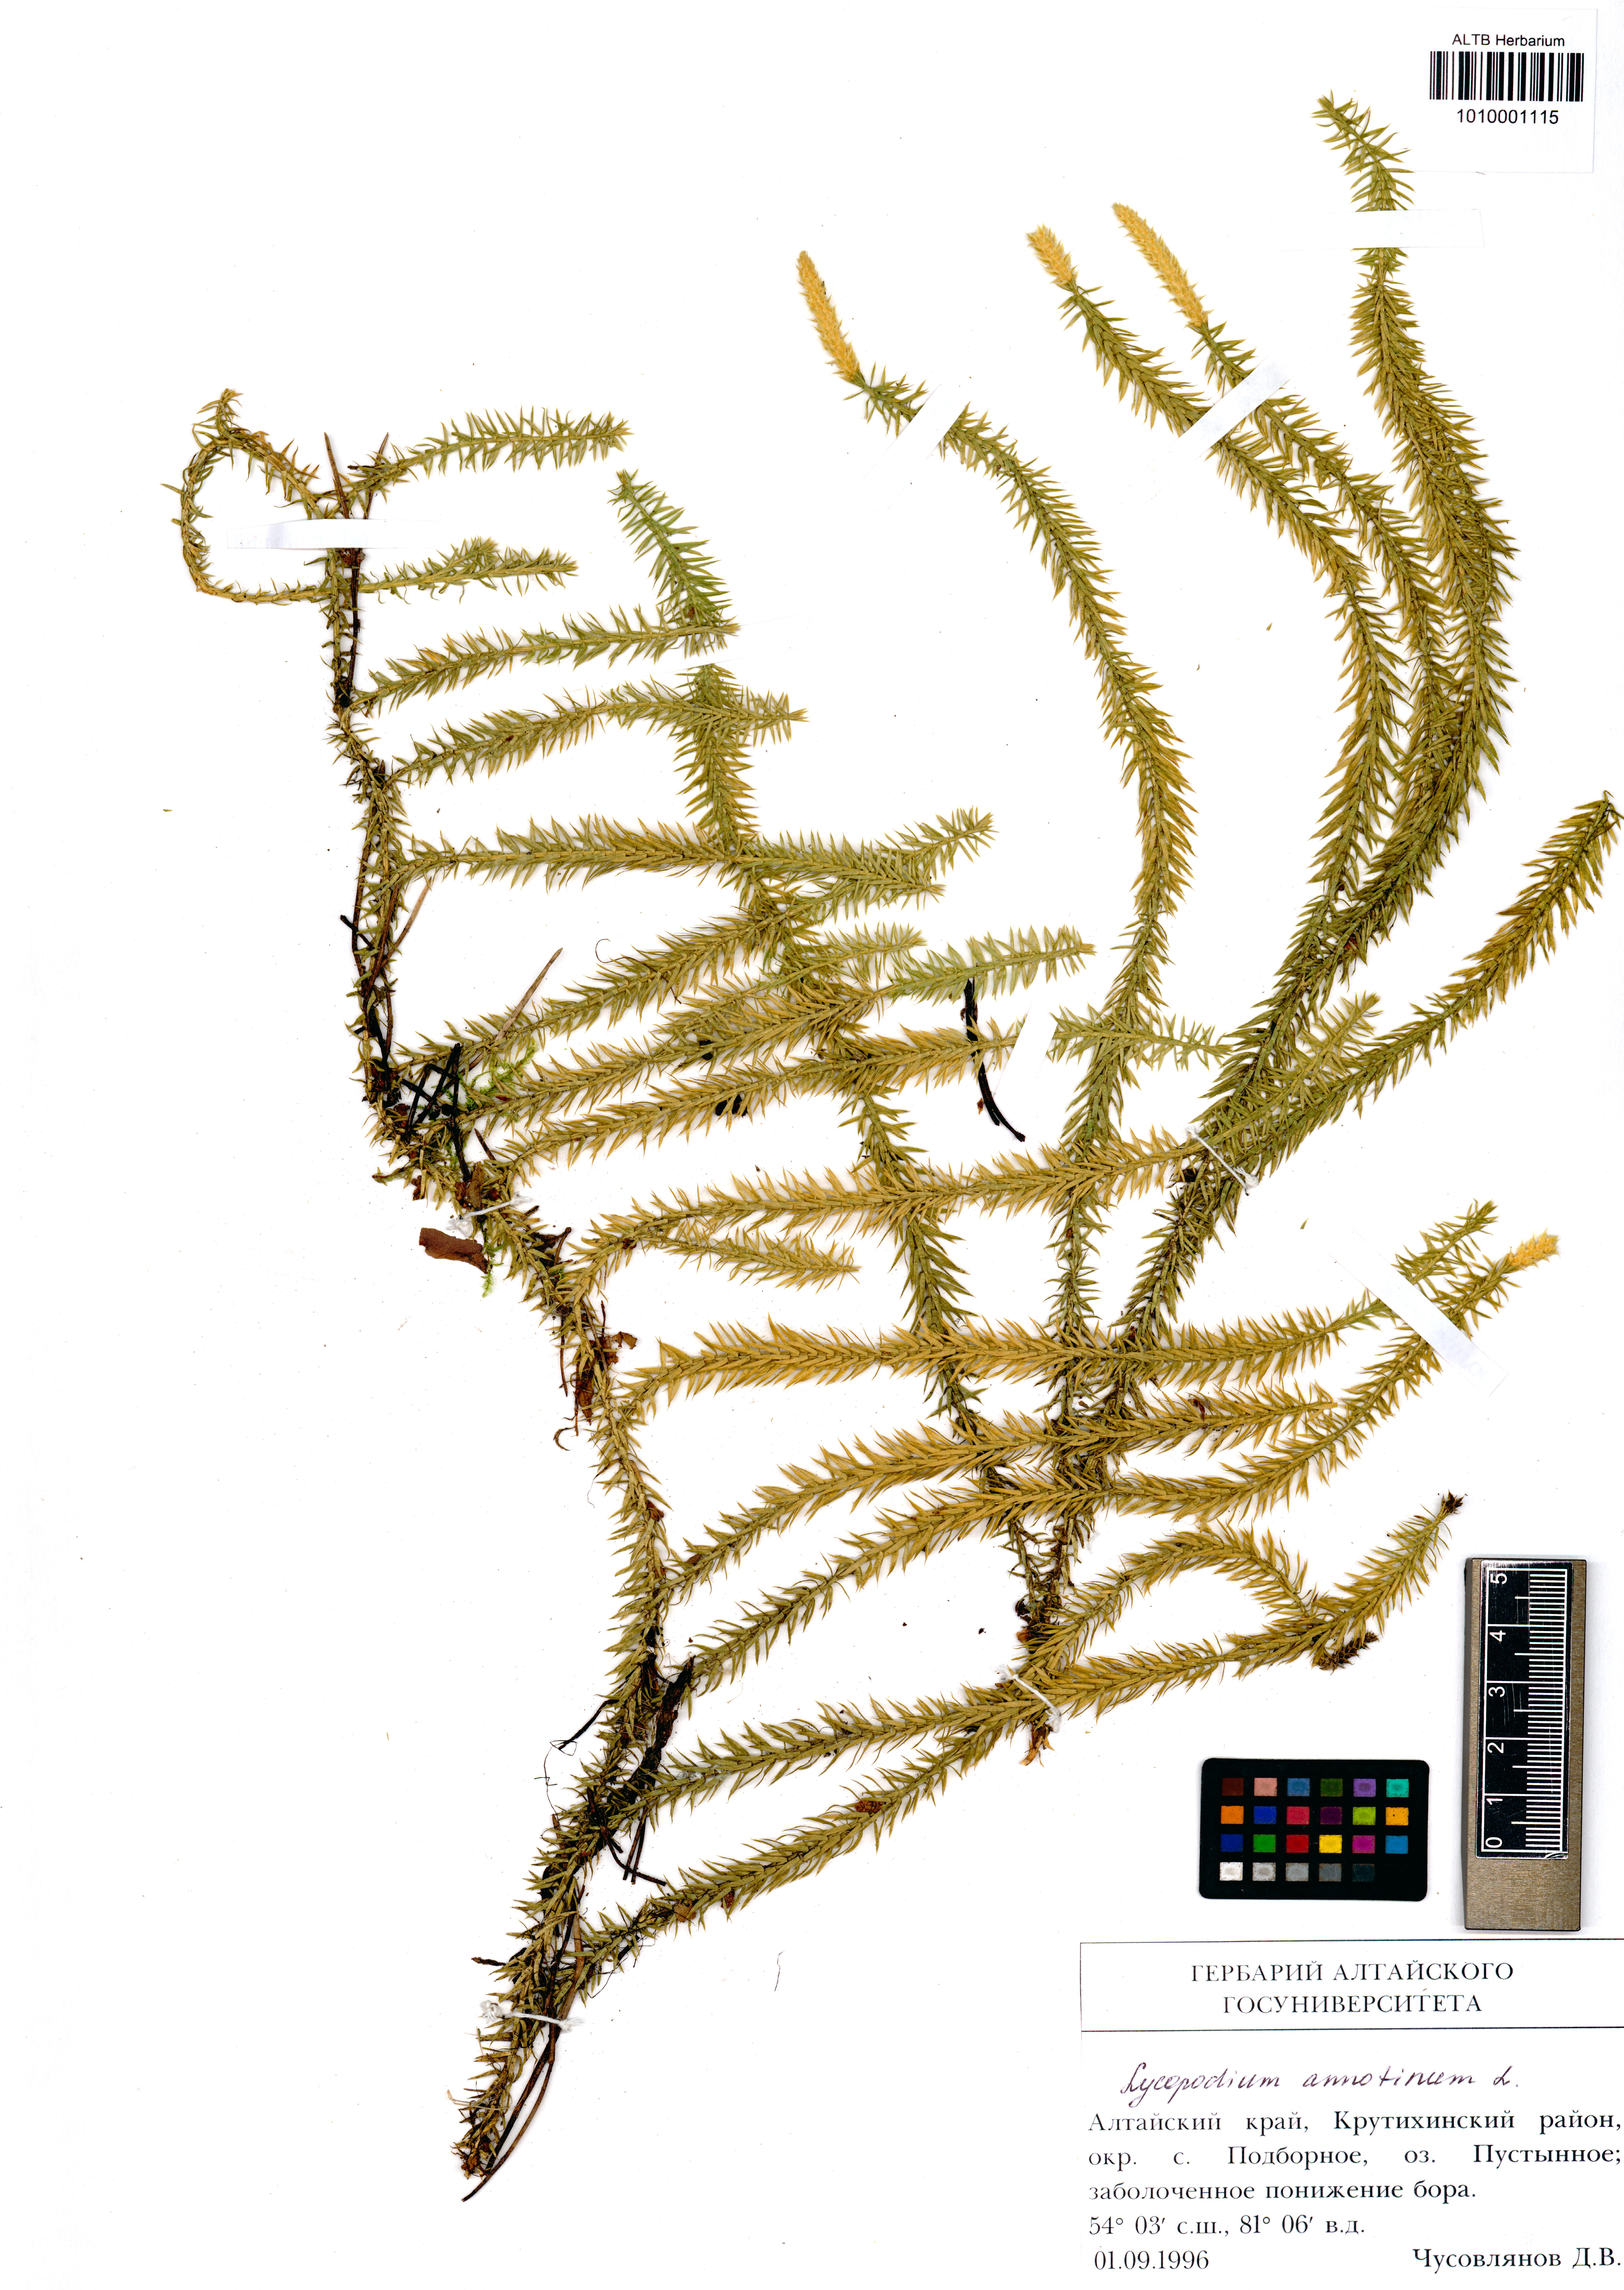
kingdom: Plantae
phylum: Tracheophyta
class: Lycopodiopsida
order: Lycopodiales
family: Lycopodiaceae
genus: Spinulum
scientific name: Spinulum annotinum
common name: Interrupted club-moss
